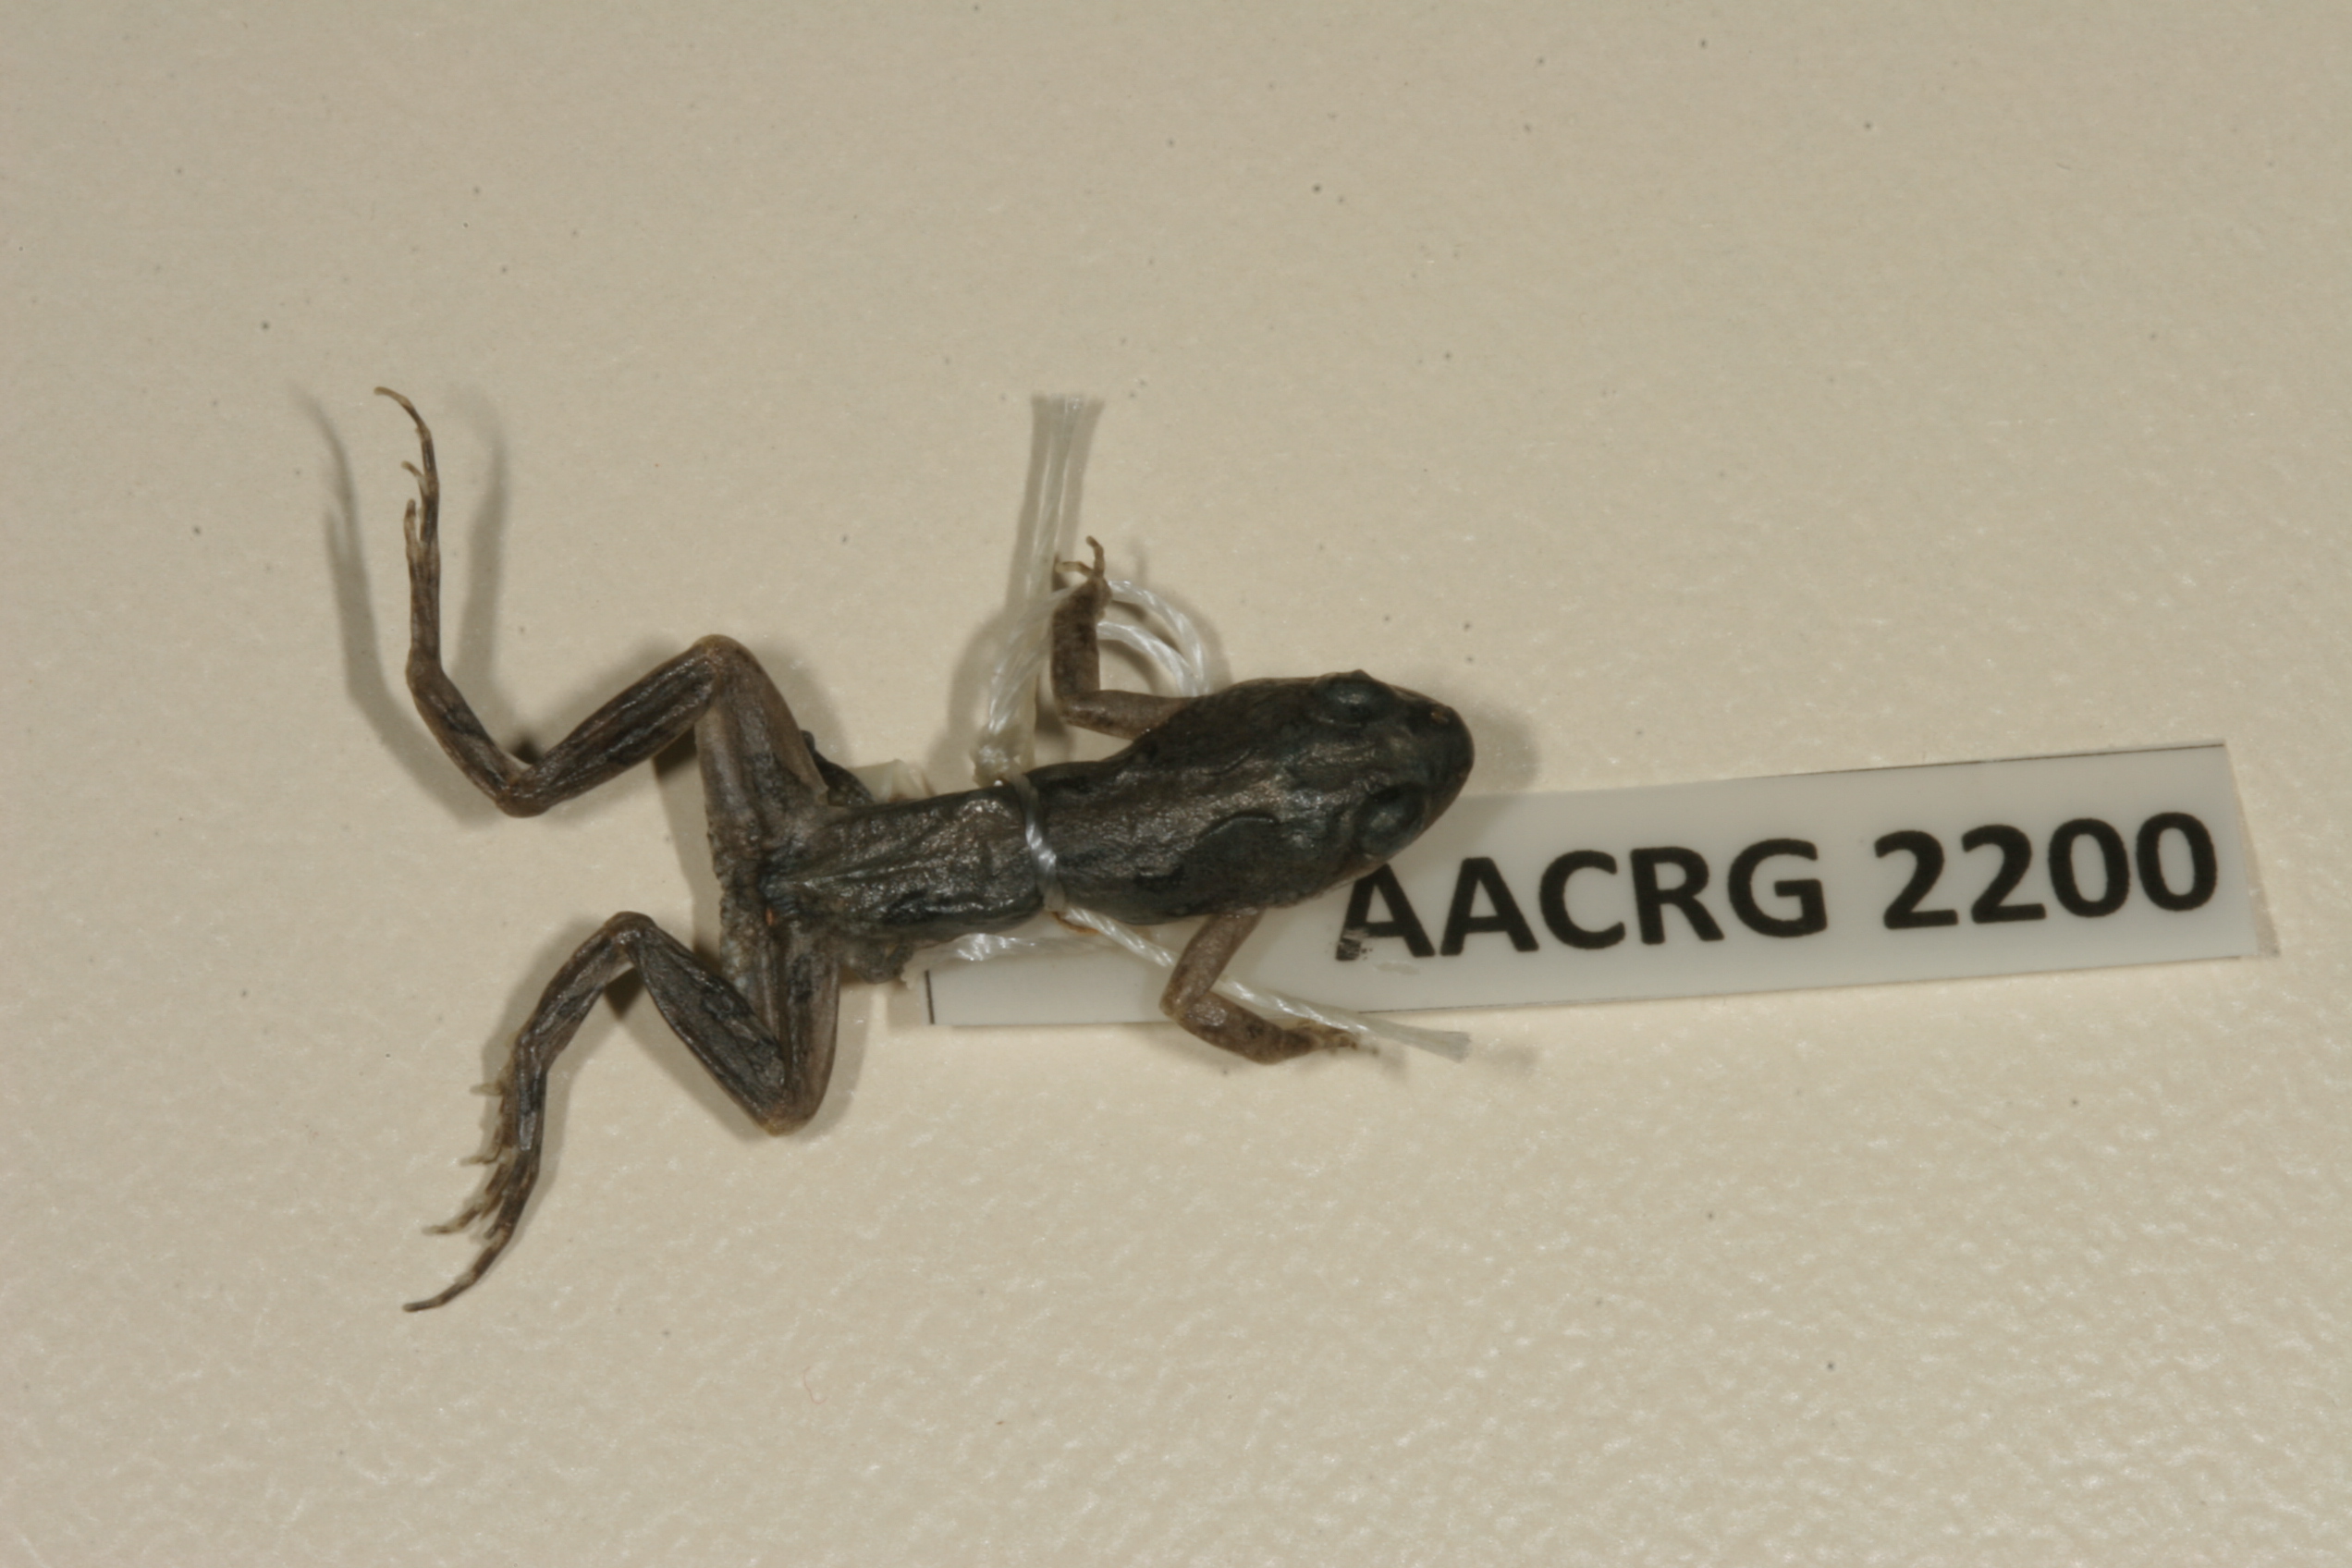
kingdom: Animalia
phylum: Chordata
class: Amphibia
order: Anura
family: Pyxicephalidae
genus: Cacosternum
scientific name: Cacosternum boettgeri
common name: Boettger's frog
